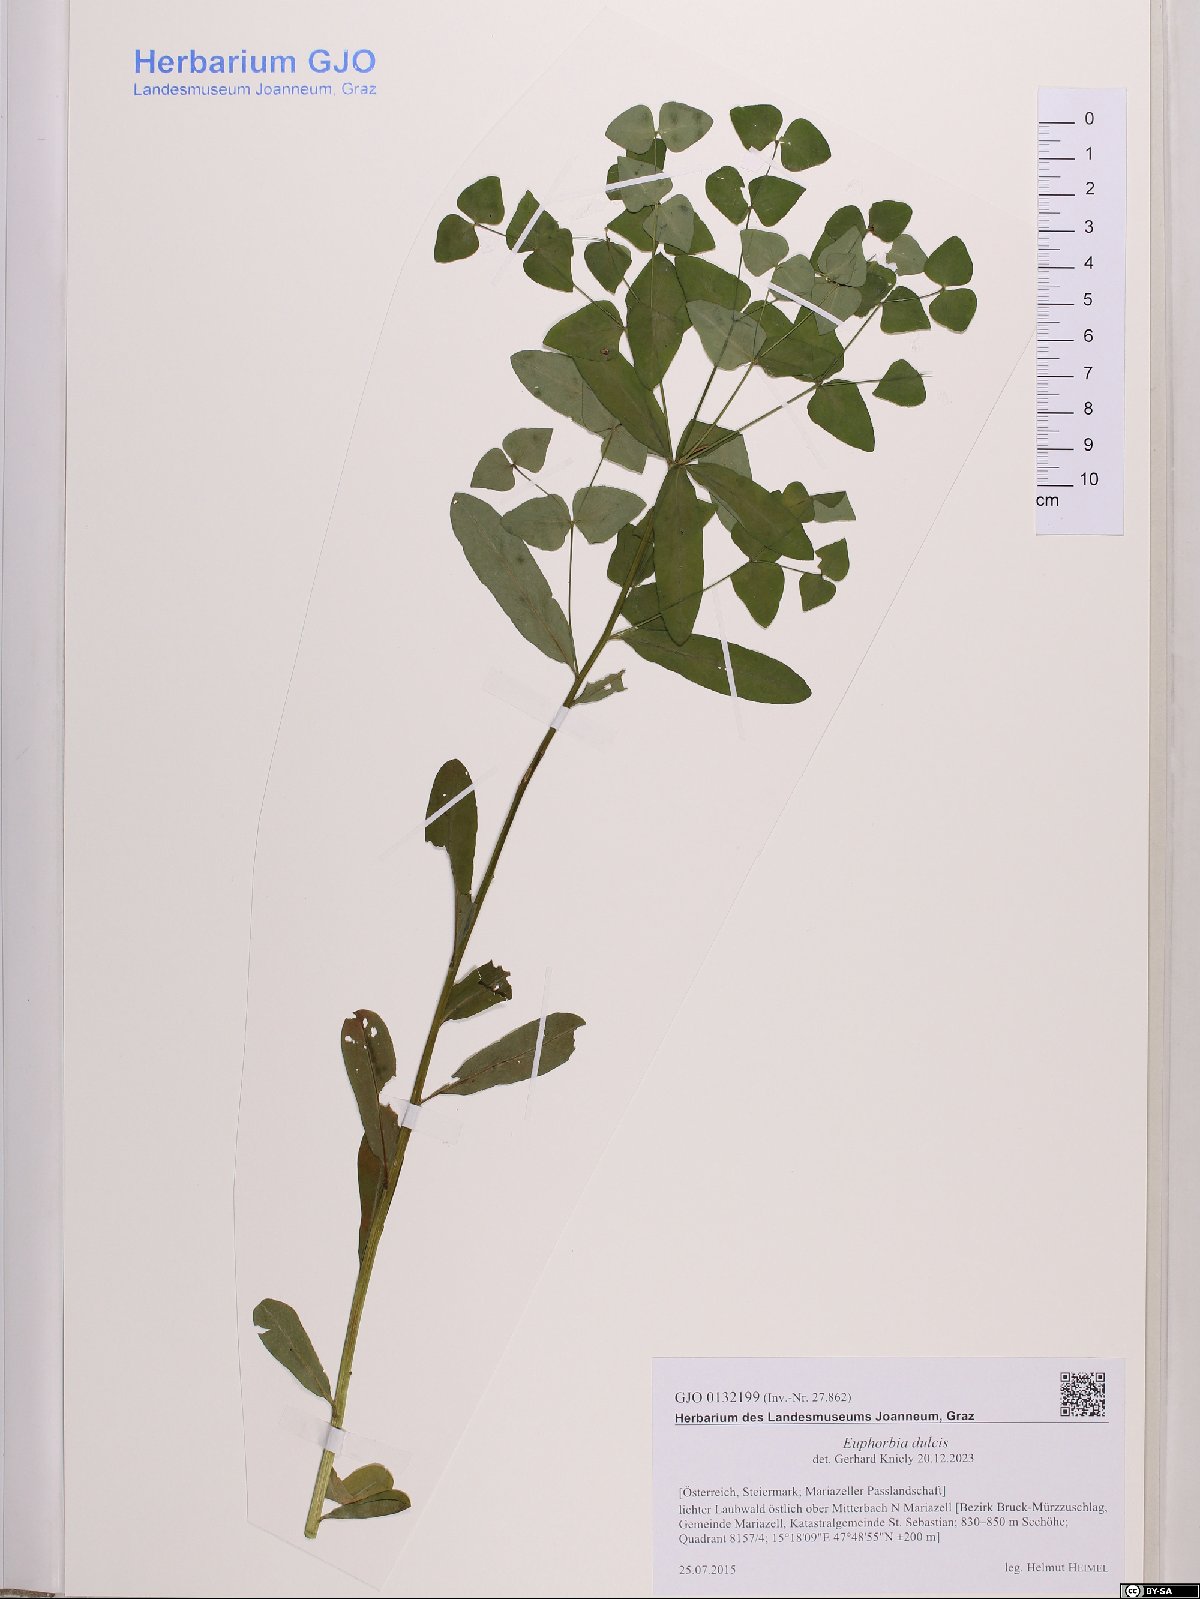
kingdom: Plantae
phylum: Tracheophyta
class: Magnoliopsida
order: Malpighiales
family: Euphorbiaceae
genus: Euphorbia
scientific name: Euphorbia dulcis
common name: Sweet spurge
